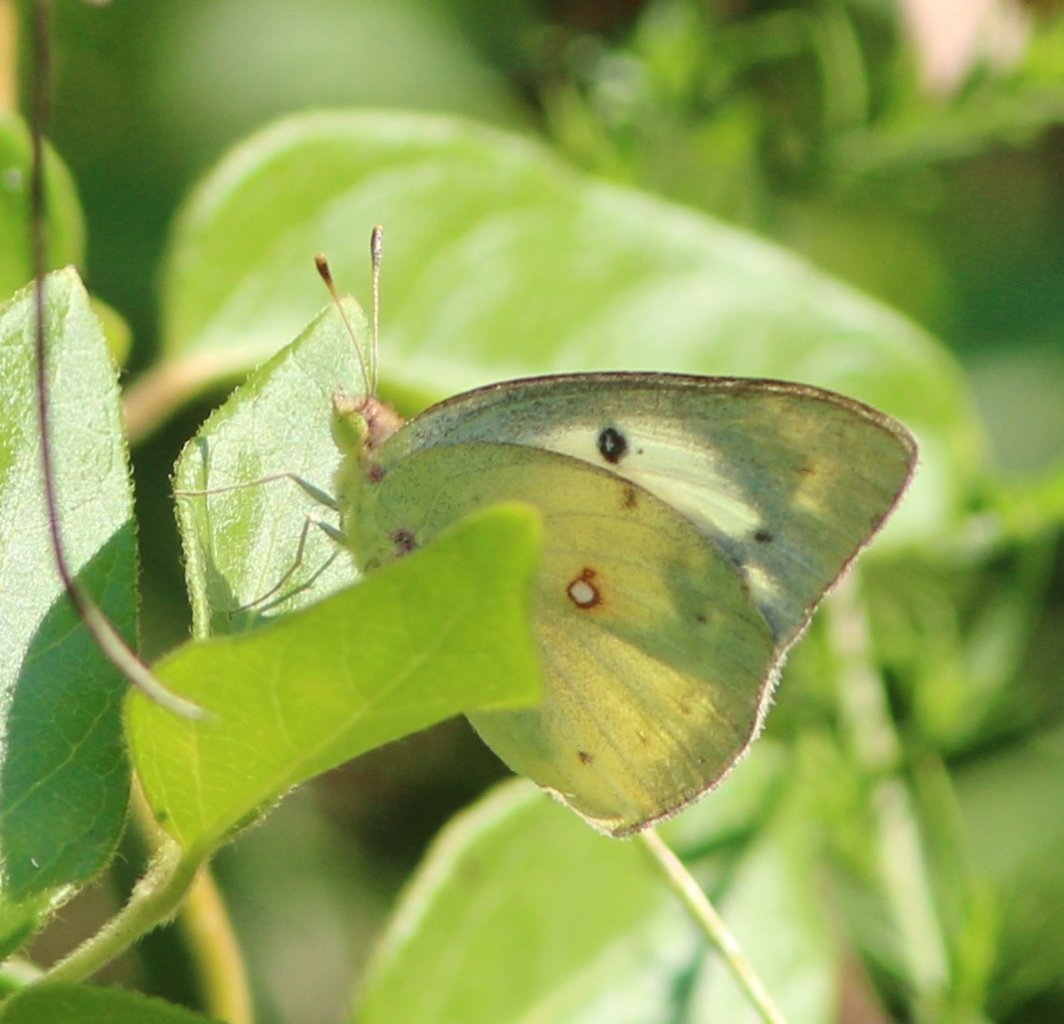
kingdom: Animalia
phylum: Arthropoda
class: Insecta
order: Lepidoptera
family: Pieridae
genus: Colias
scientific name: Colias
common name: Clouded Yellows
